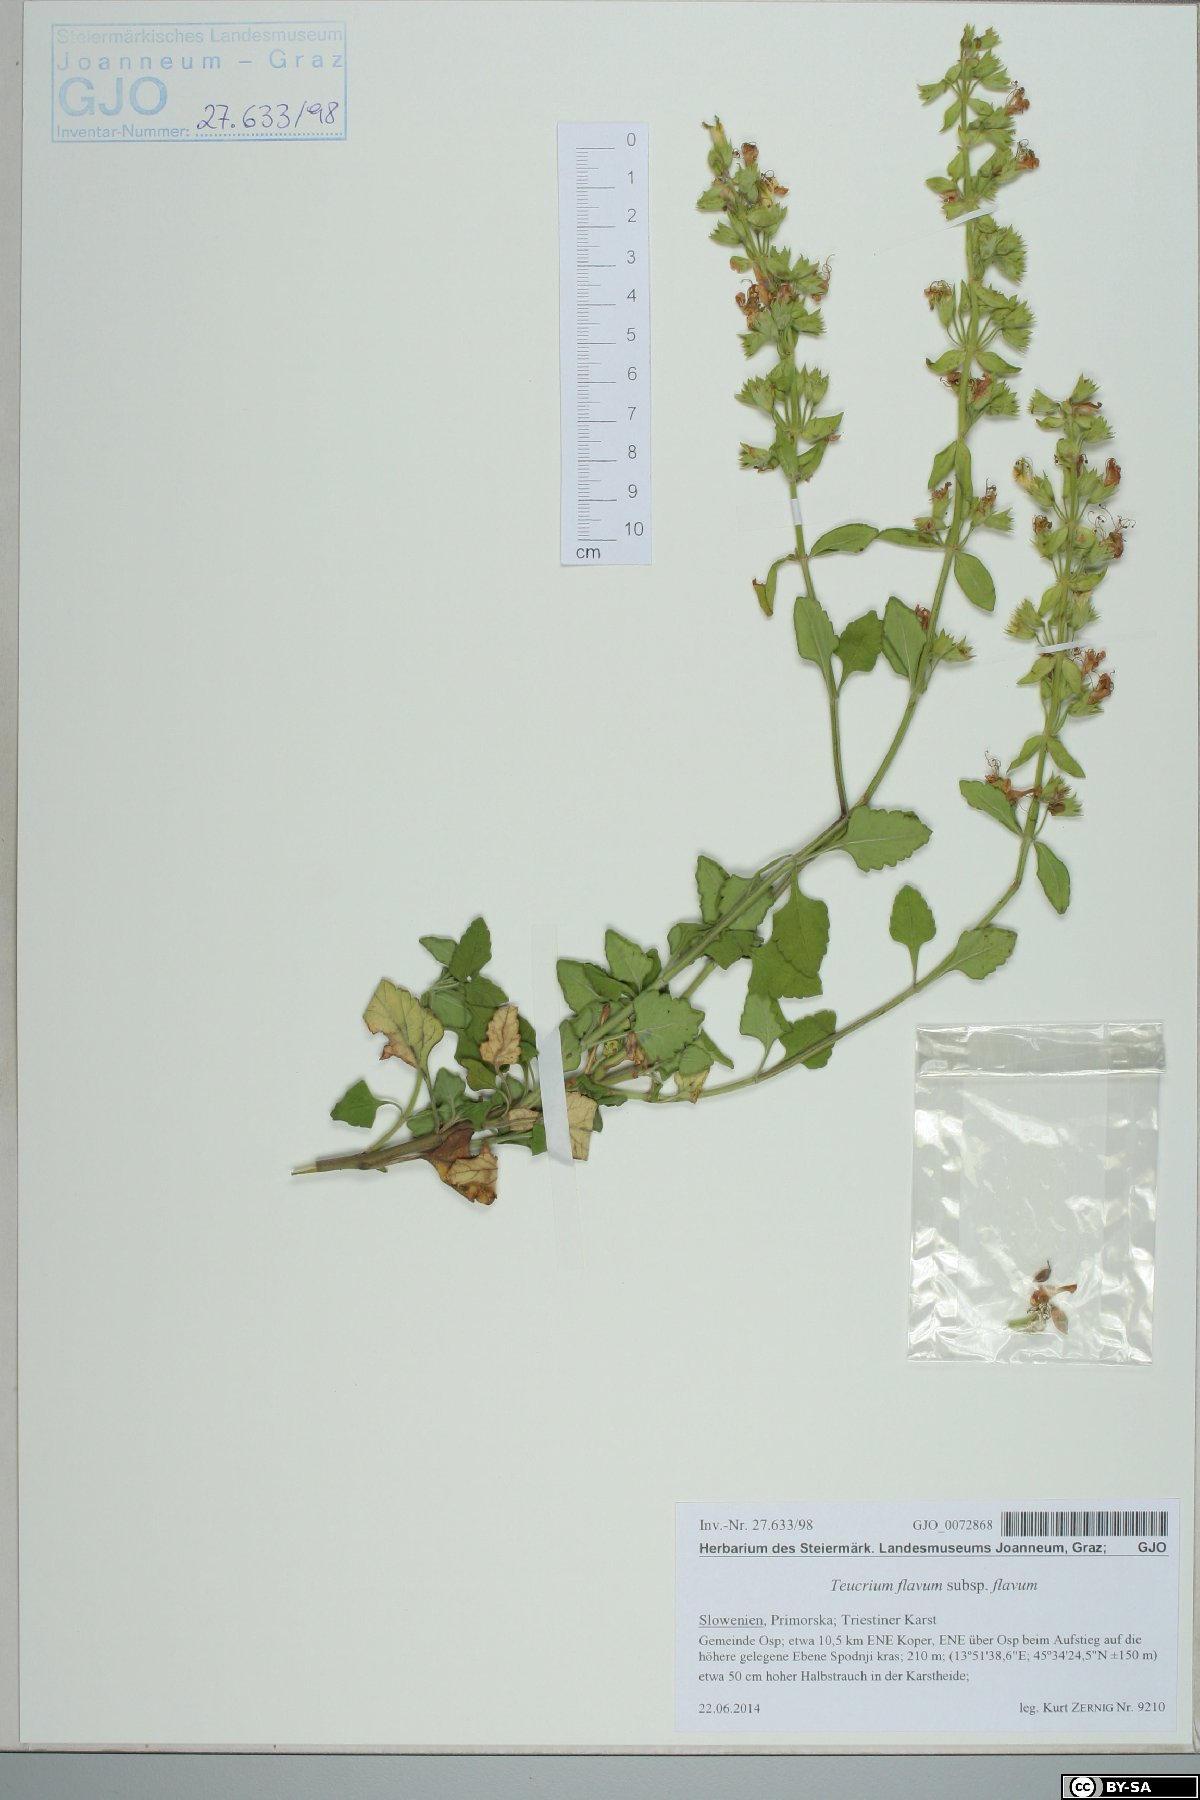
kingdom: Plantae
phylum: Tracheophyta
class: Magnoliopsida
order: Lamiales
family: Lamiaceae
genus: Teucrium
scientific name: Teucrium flavum
